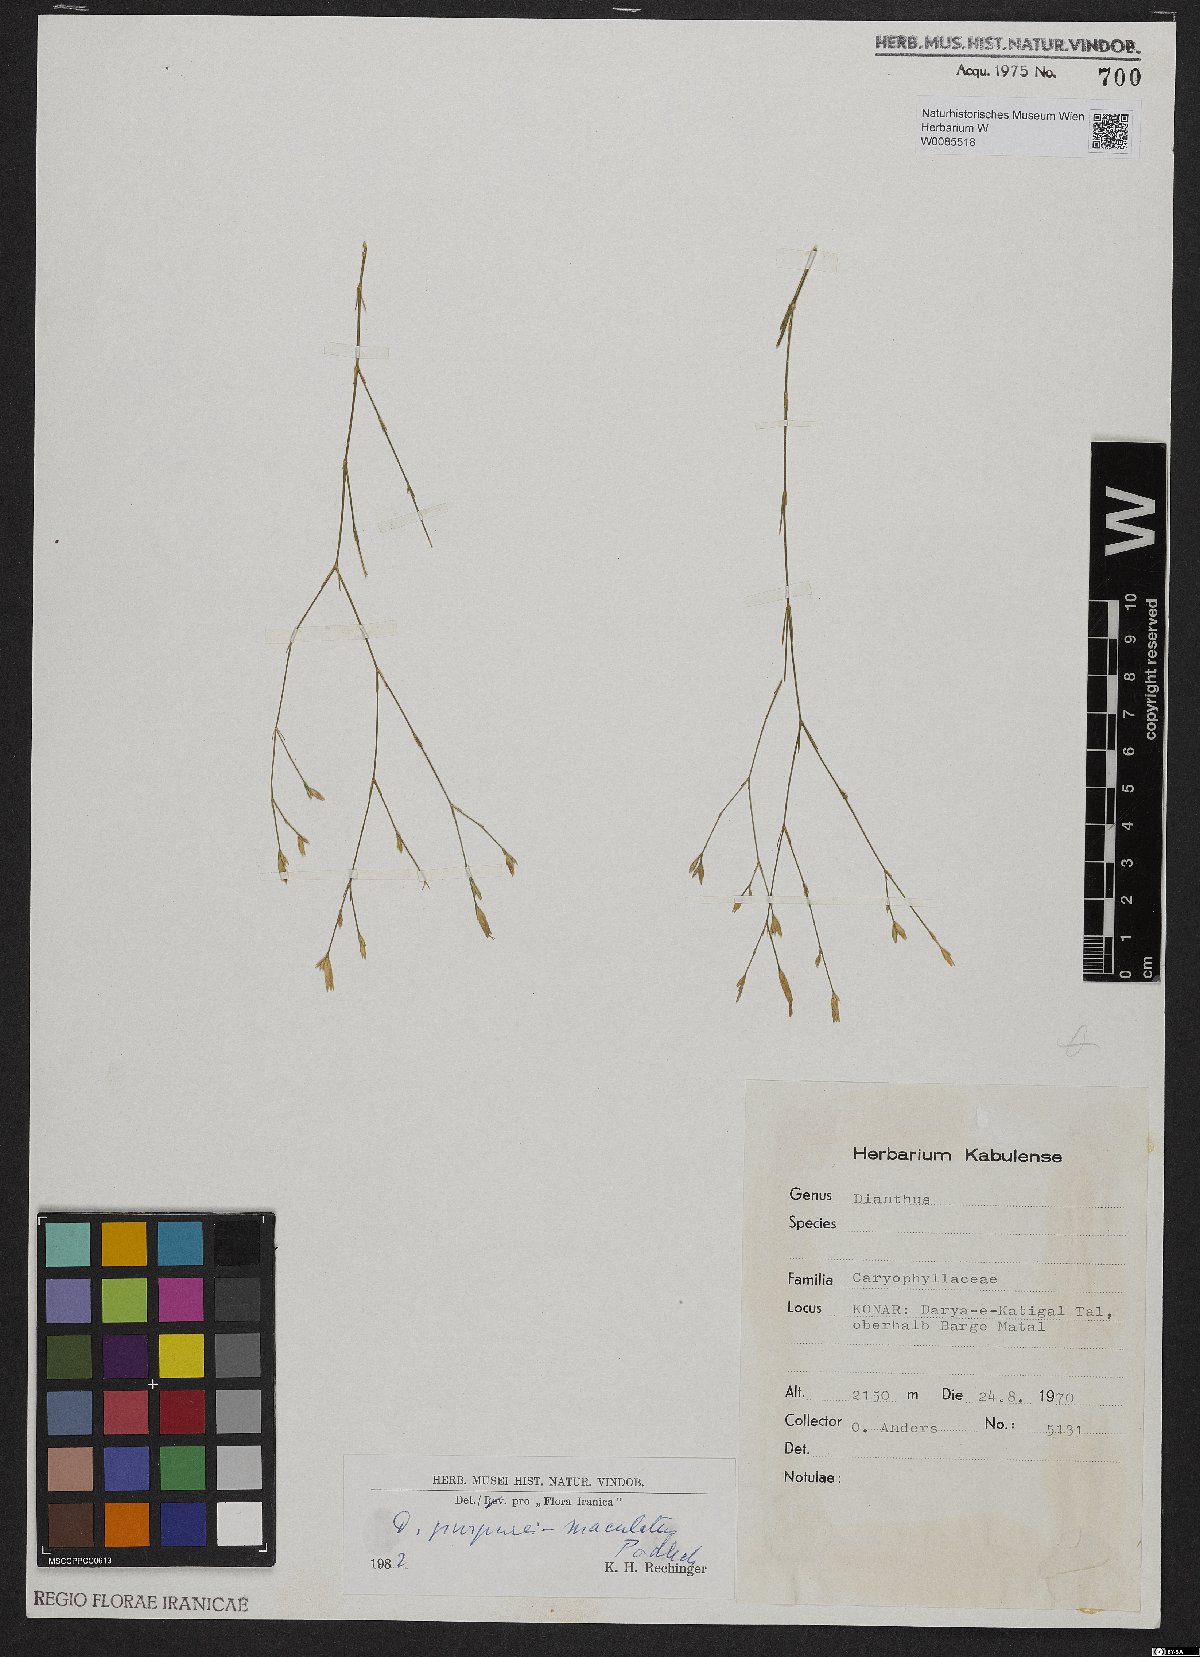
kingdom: Plantae
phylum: Tracheophyta
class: Magnoliopsida
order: Caryophyllales
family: Caryophyllaceae
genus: Dianthus
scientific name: Dianthus purpureimaculatus
